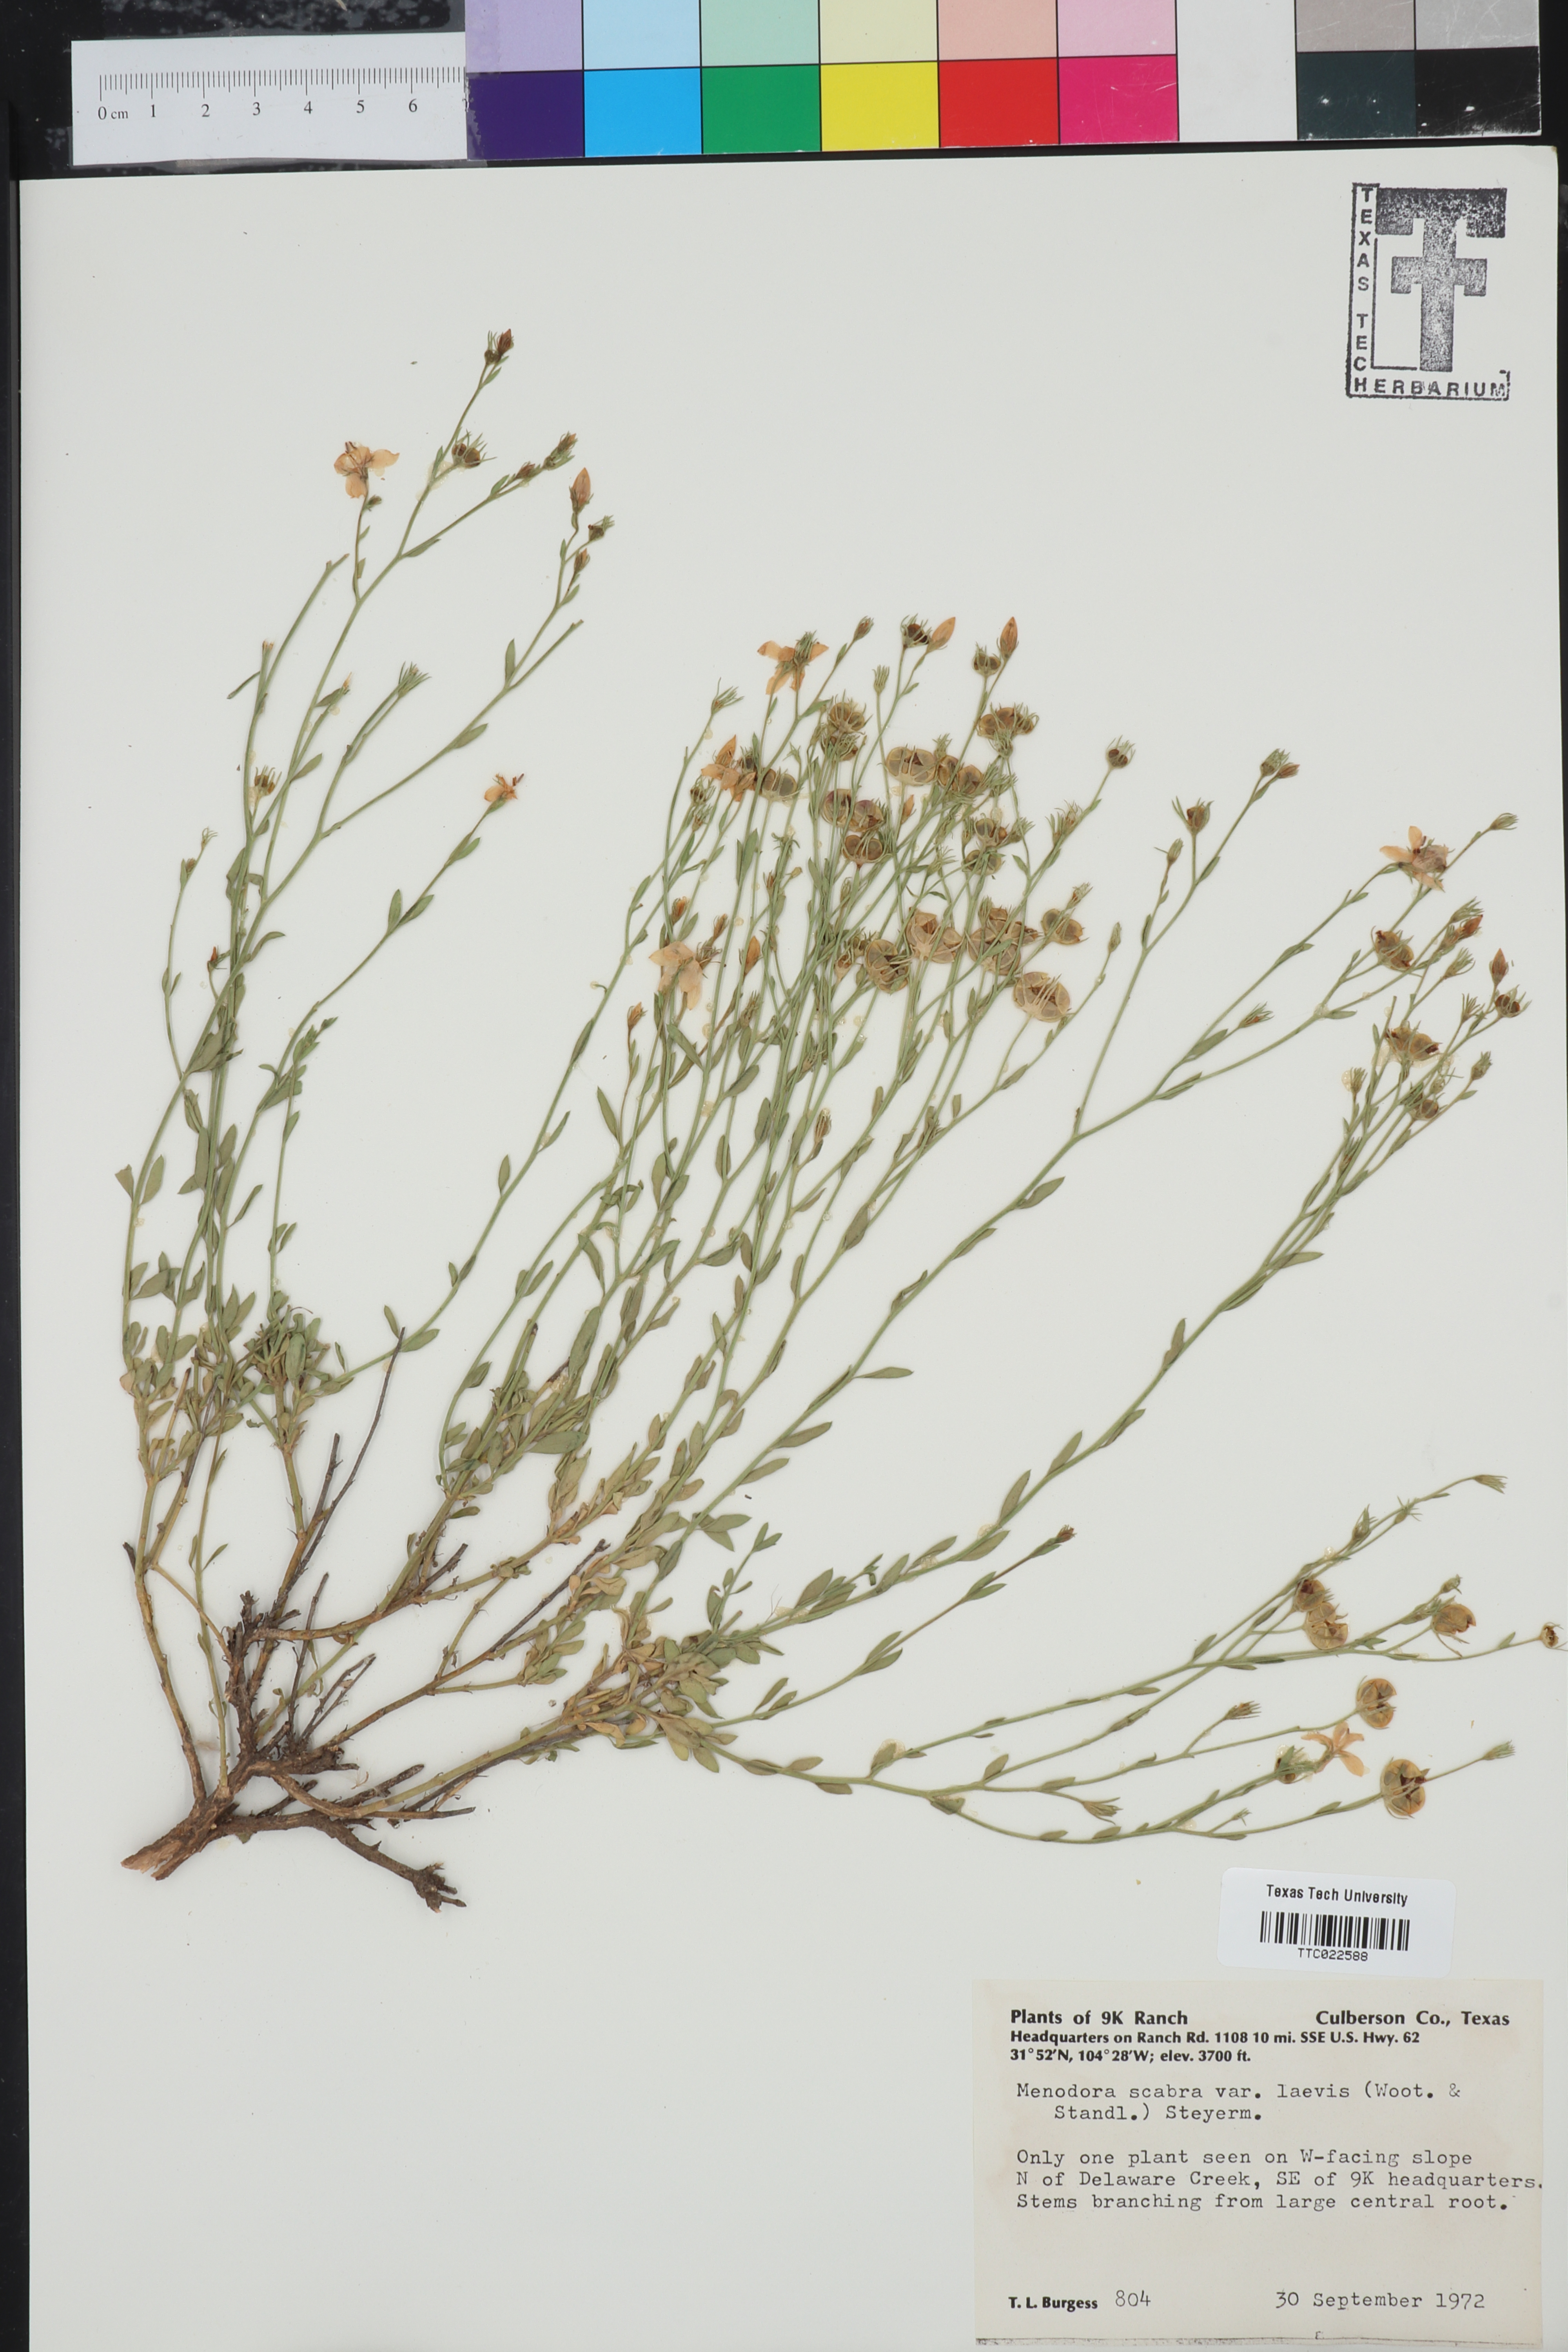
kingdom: Plantae
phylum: Tracheophyta
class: Magnoliopsida
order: Lamiales
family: Oleaceae
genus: Menodora
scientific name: Menodora scabra
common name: Rough menodora
